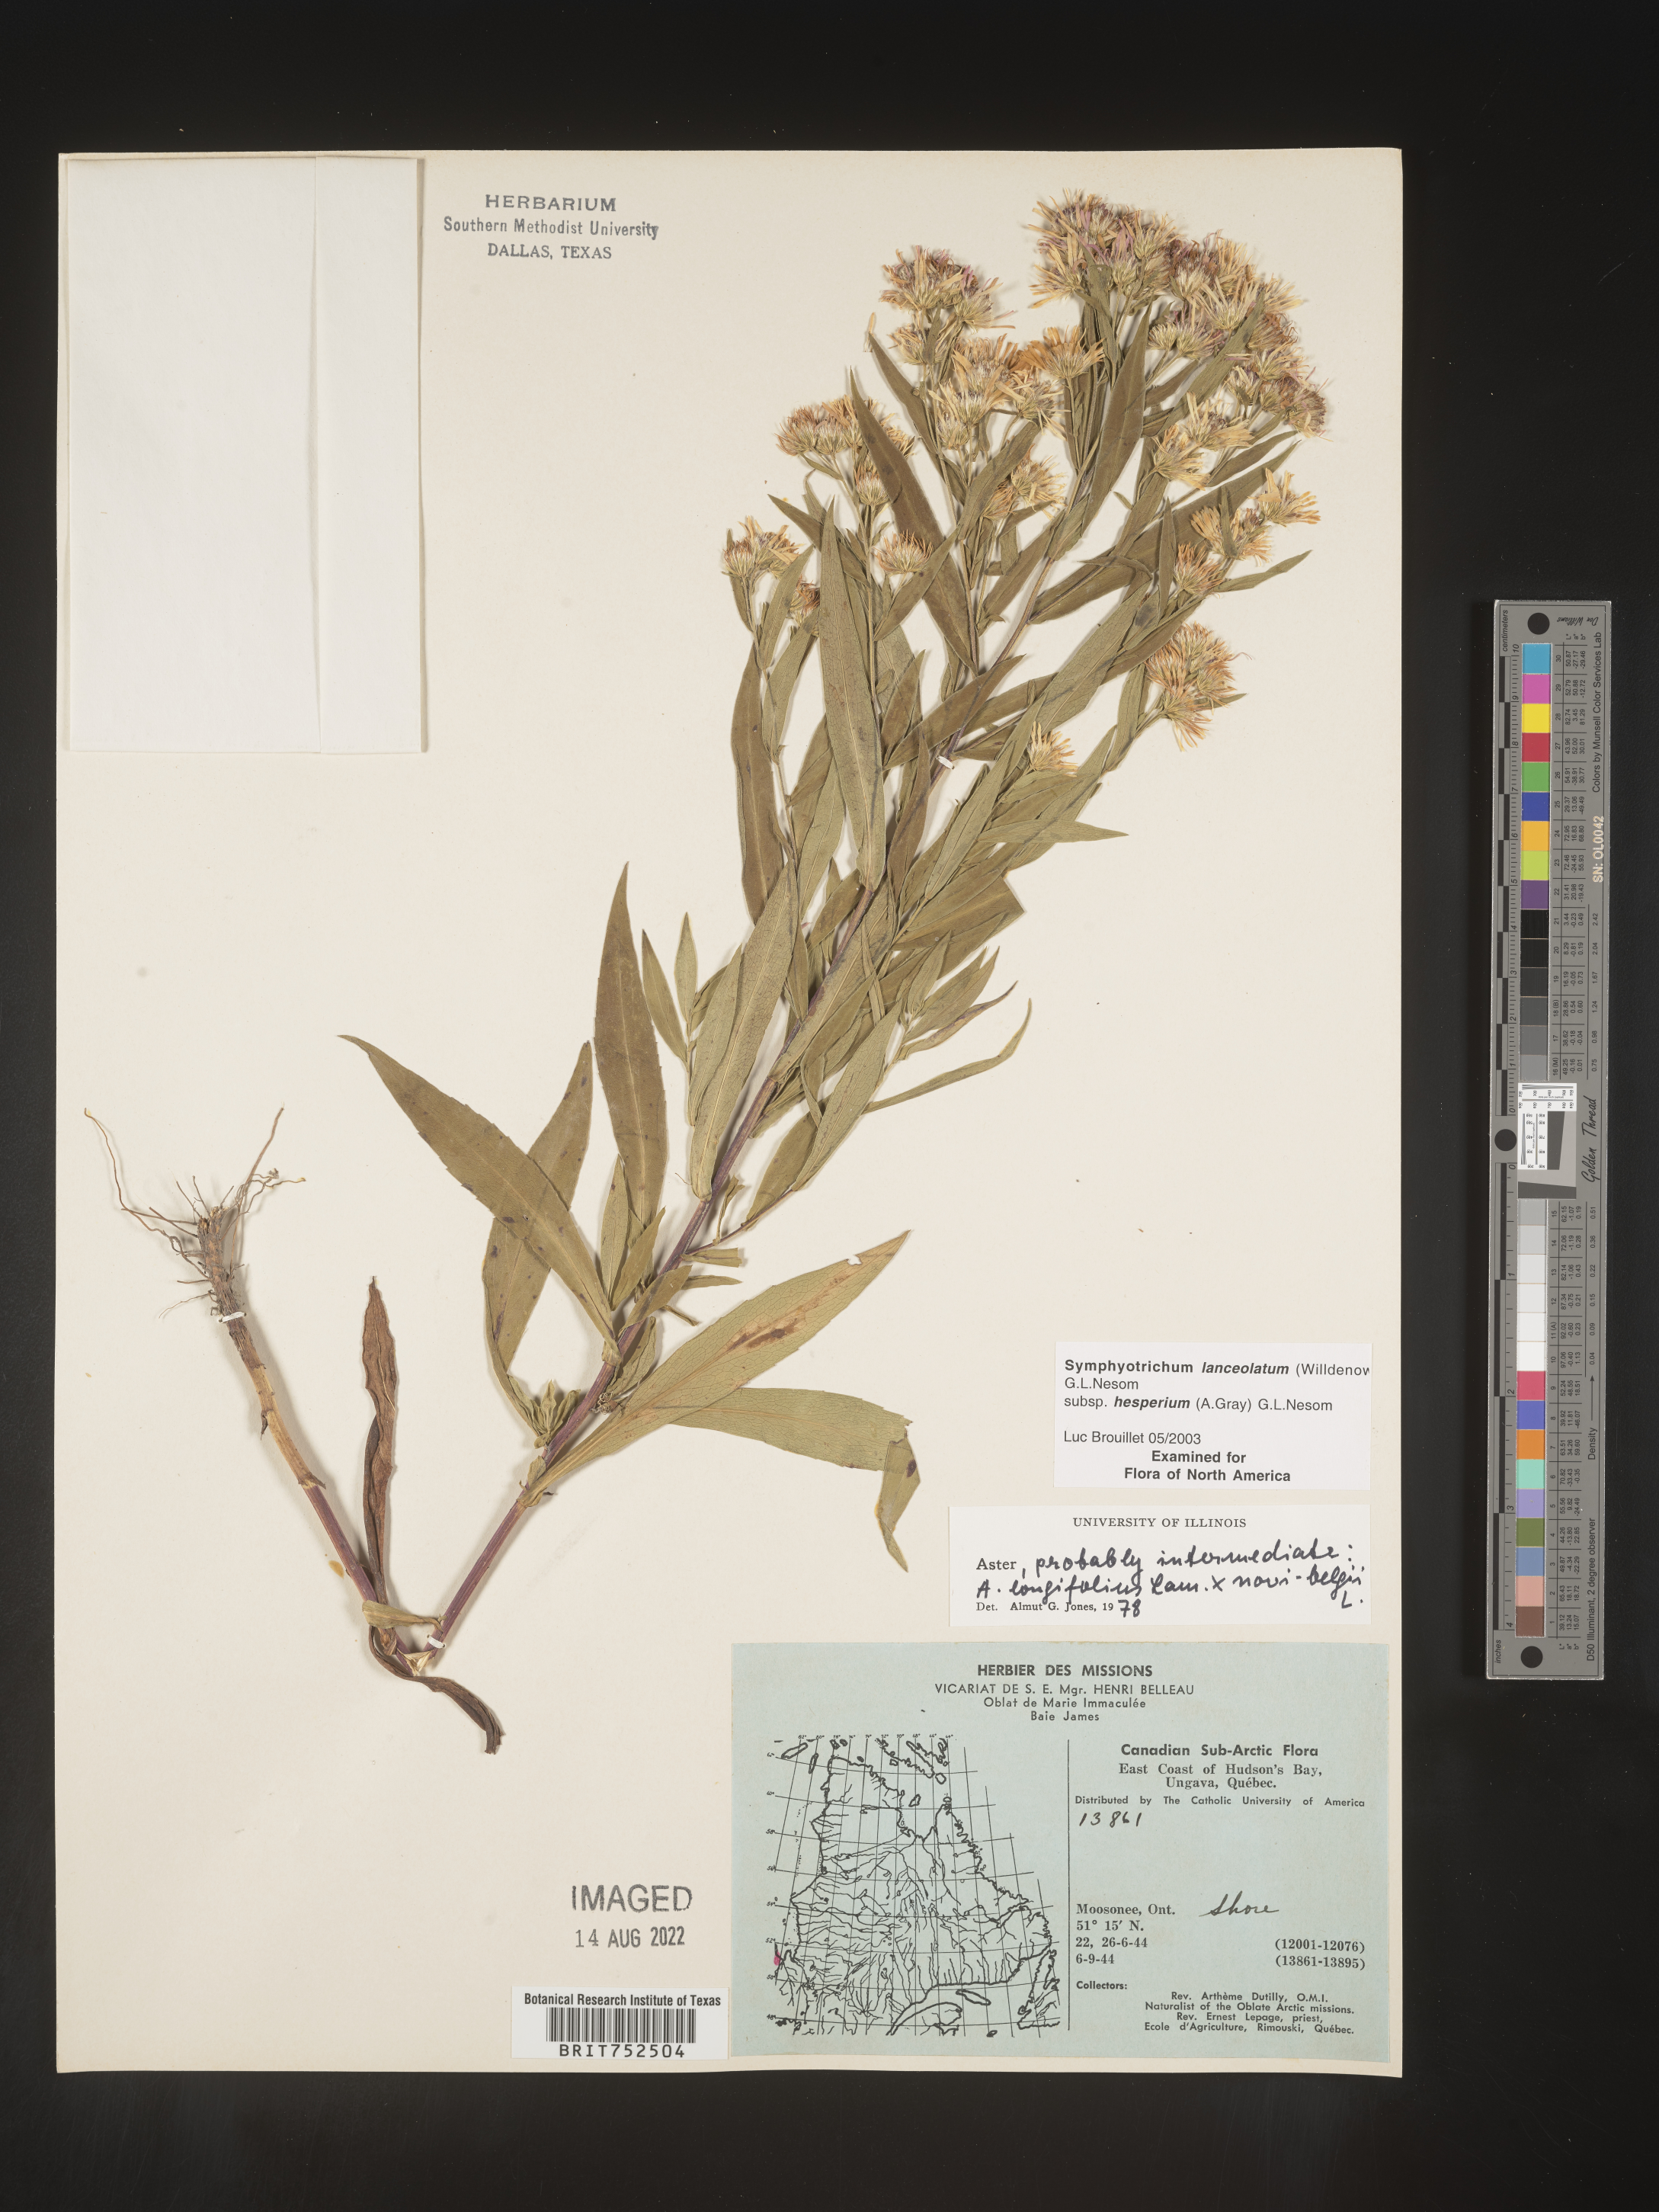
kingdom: Plantae
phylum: Tracheophyta
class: Magnoliopsida
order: Asterales
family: Asteraceae
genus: Symphyotrichum
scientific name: Symphyotrichum lanceolatum
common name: Panicled aster
